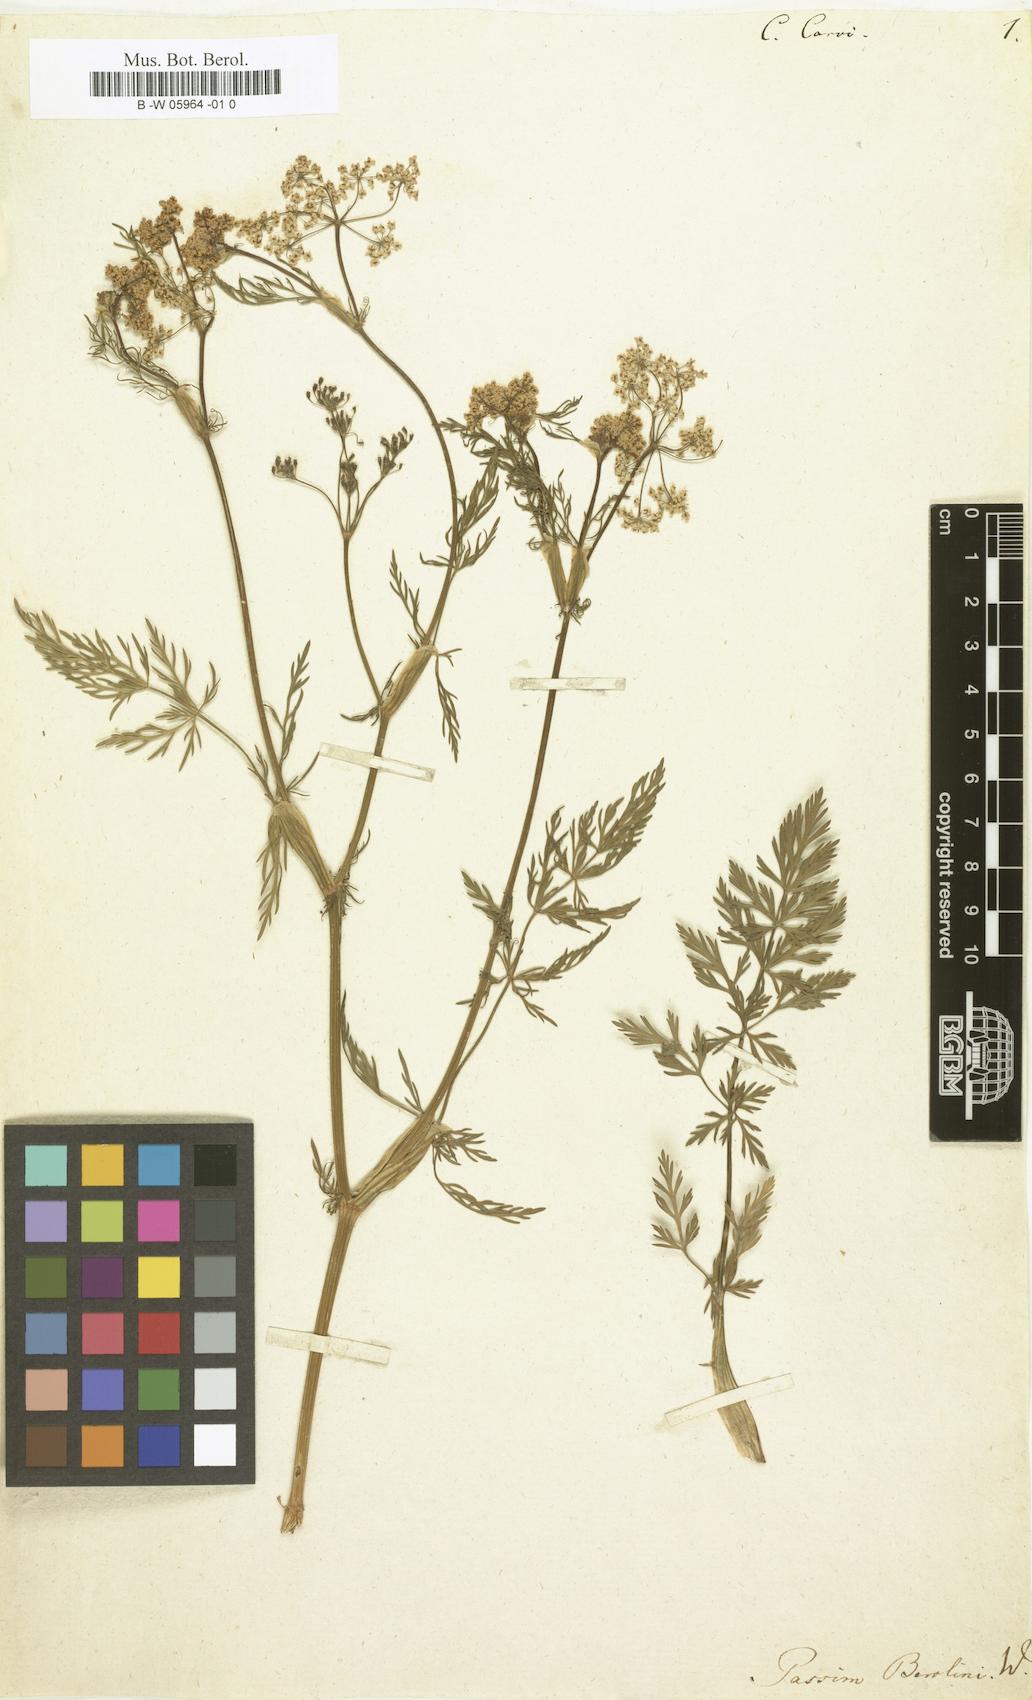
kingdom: Plantae
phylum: Tracheophyta
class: Magnoliopsida
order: Apiales
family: Apiaceae
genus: Carum
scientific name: Carum carvi
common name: Caraway
